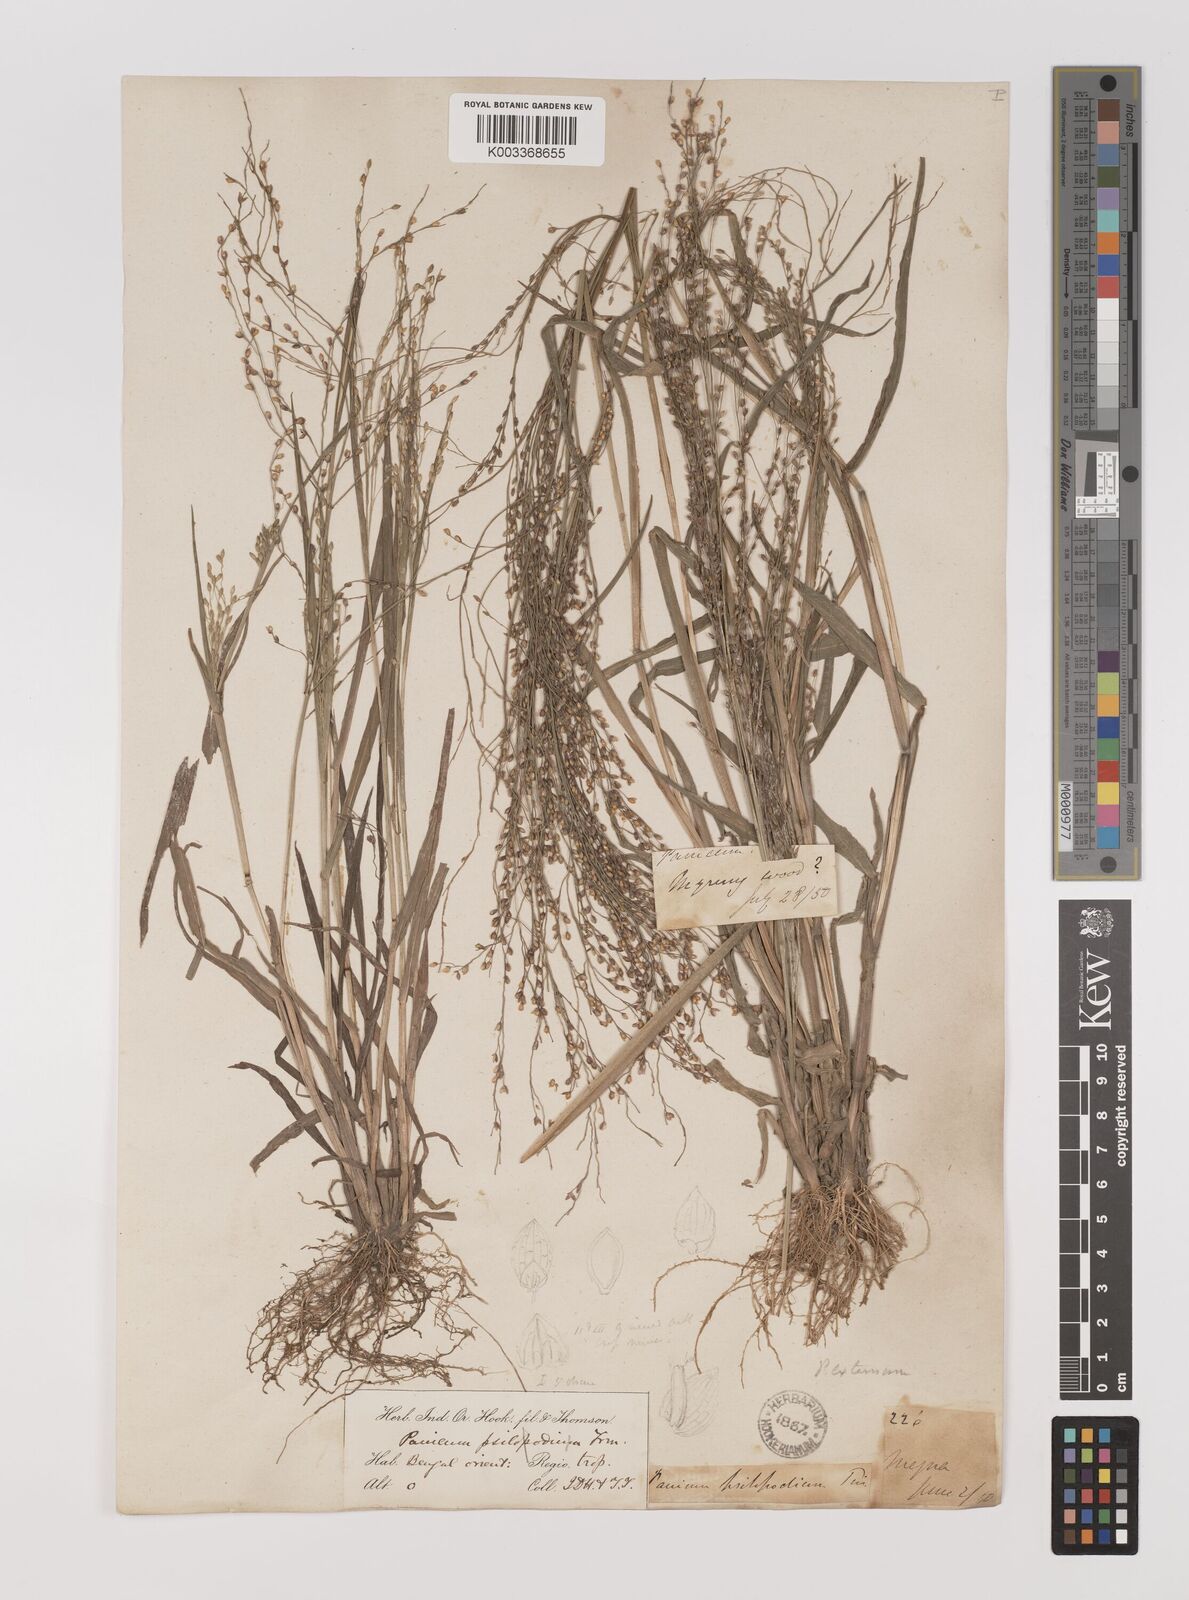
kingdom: Plantae
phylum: Tracheophyta
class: Liliopsida
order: Poales
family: Poaceae
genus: Panicum
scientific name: Panicum luzonense
